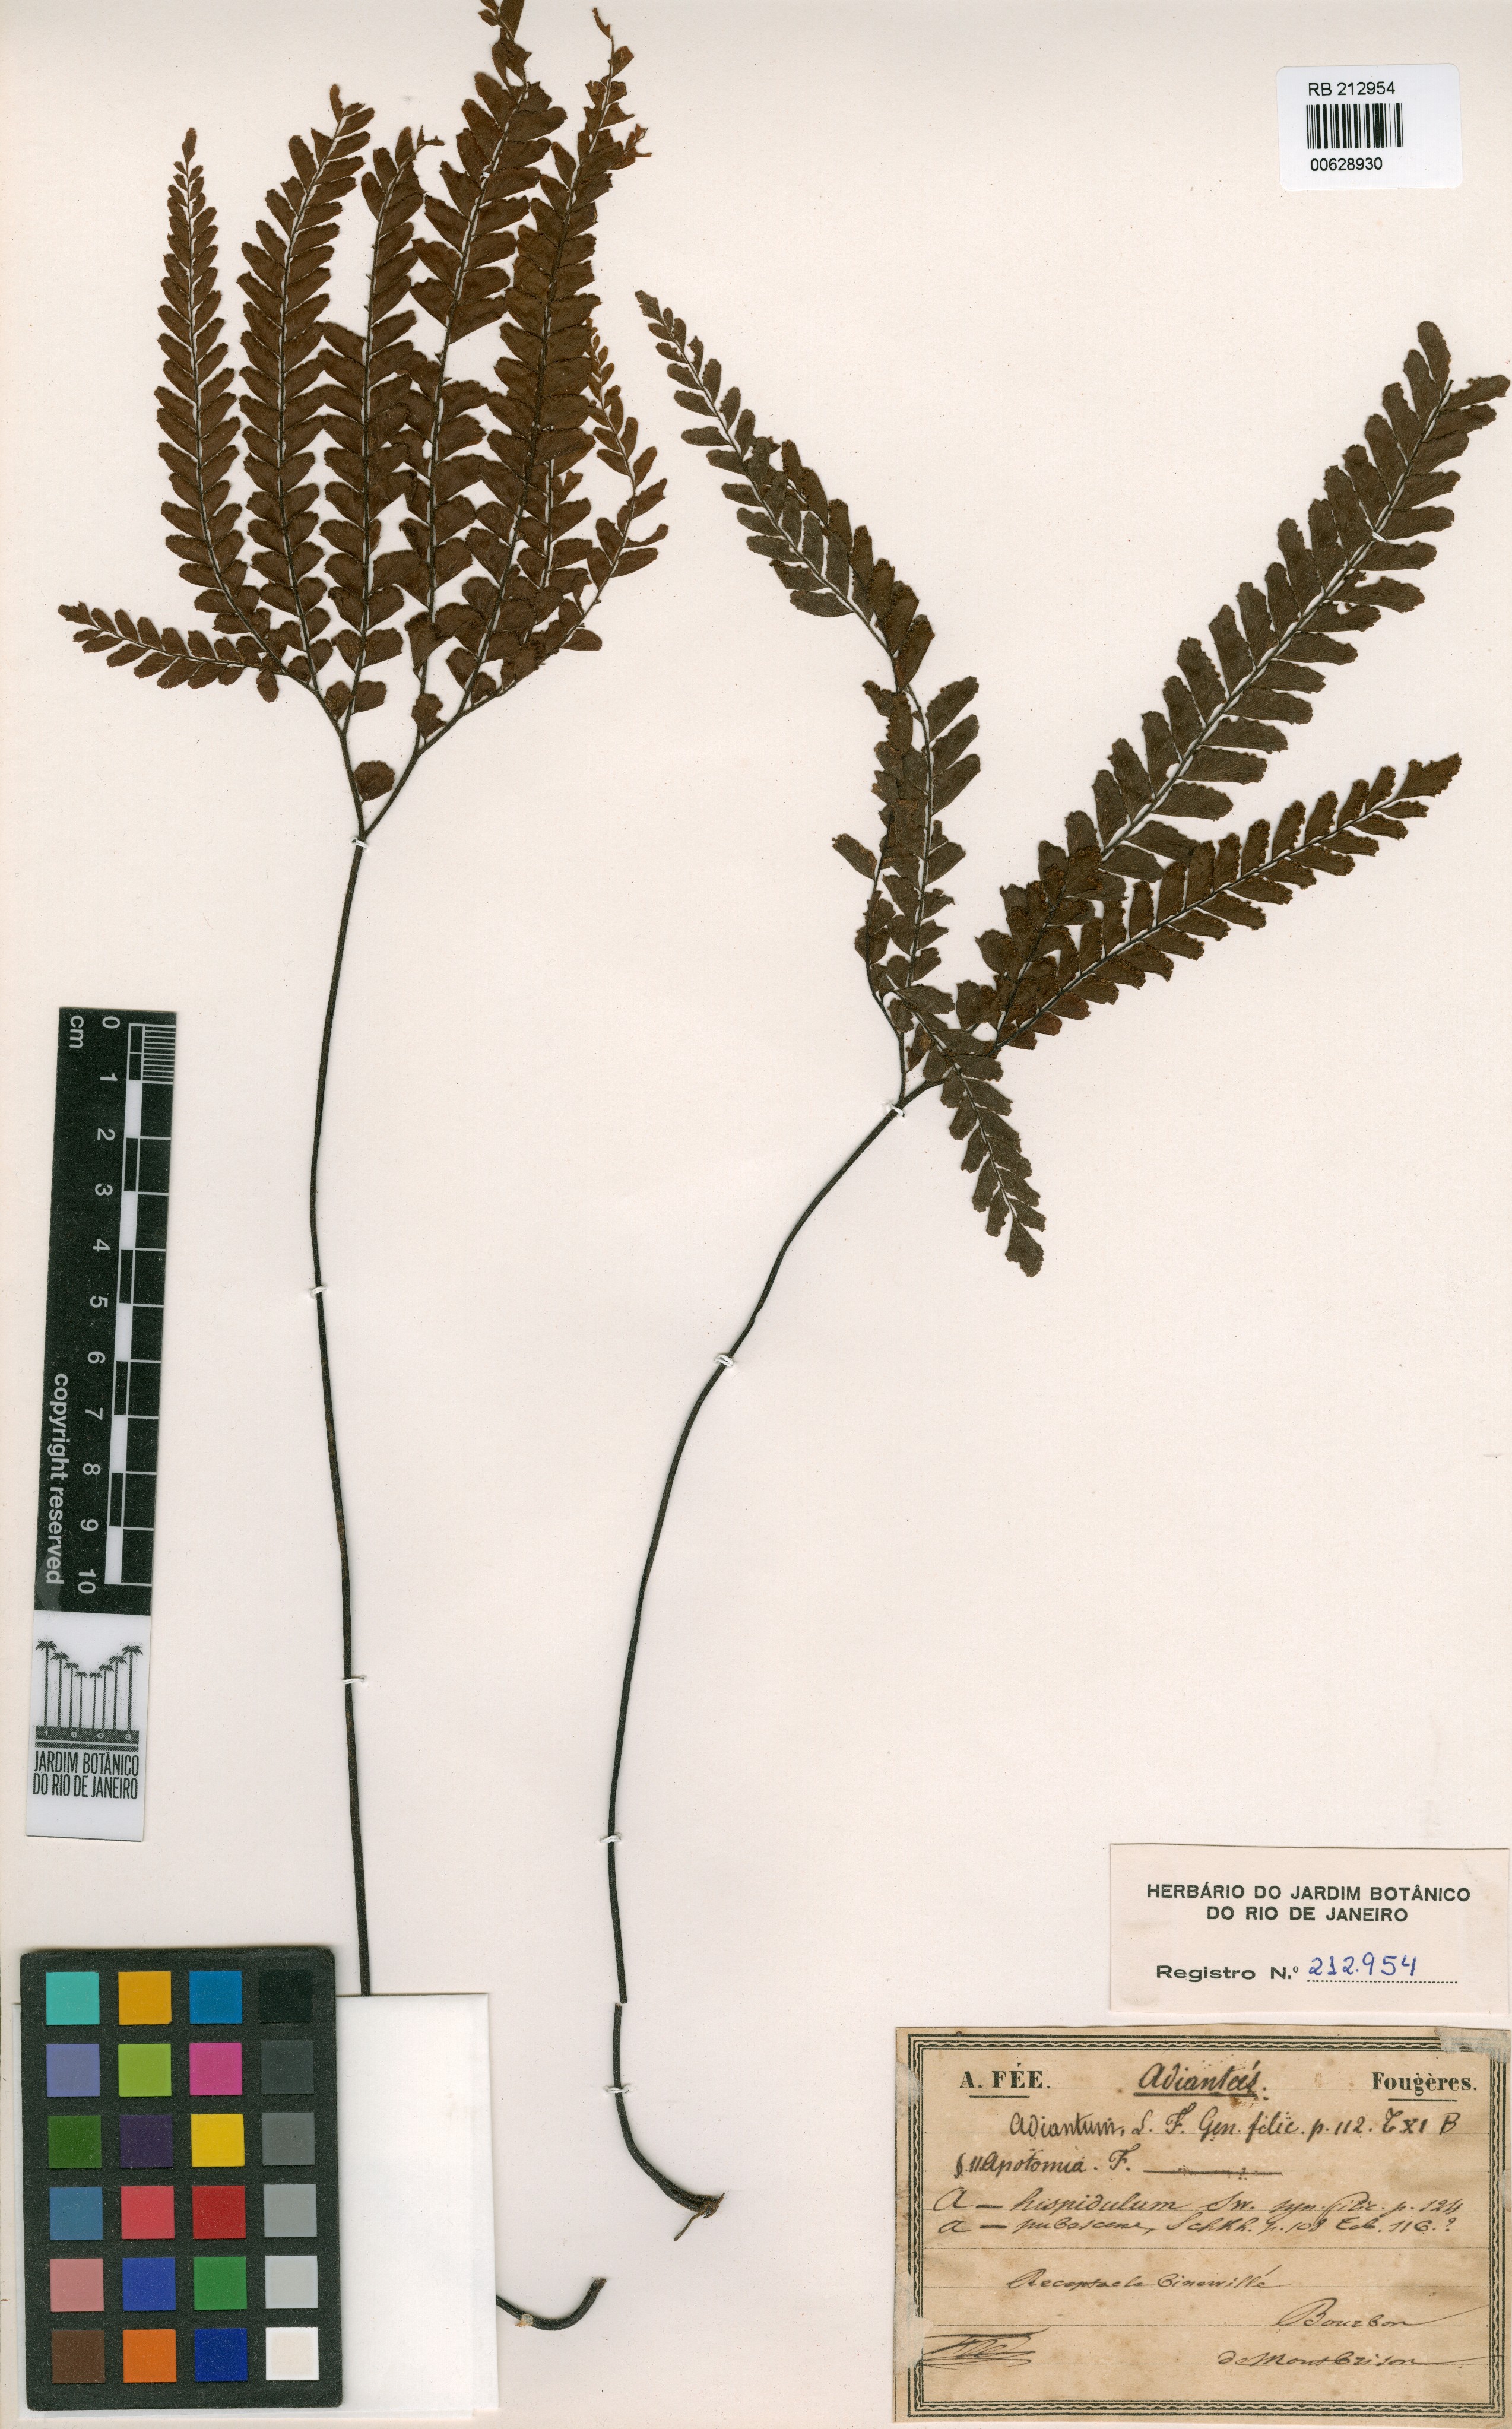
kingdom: Plantae
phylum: Tracheophyta
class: Polypodiopsida
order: Polypodiales
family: Pteridaceae
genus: Adiantum
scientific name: Adiantum hispidulum
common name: Rough maidenhair
